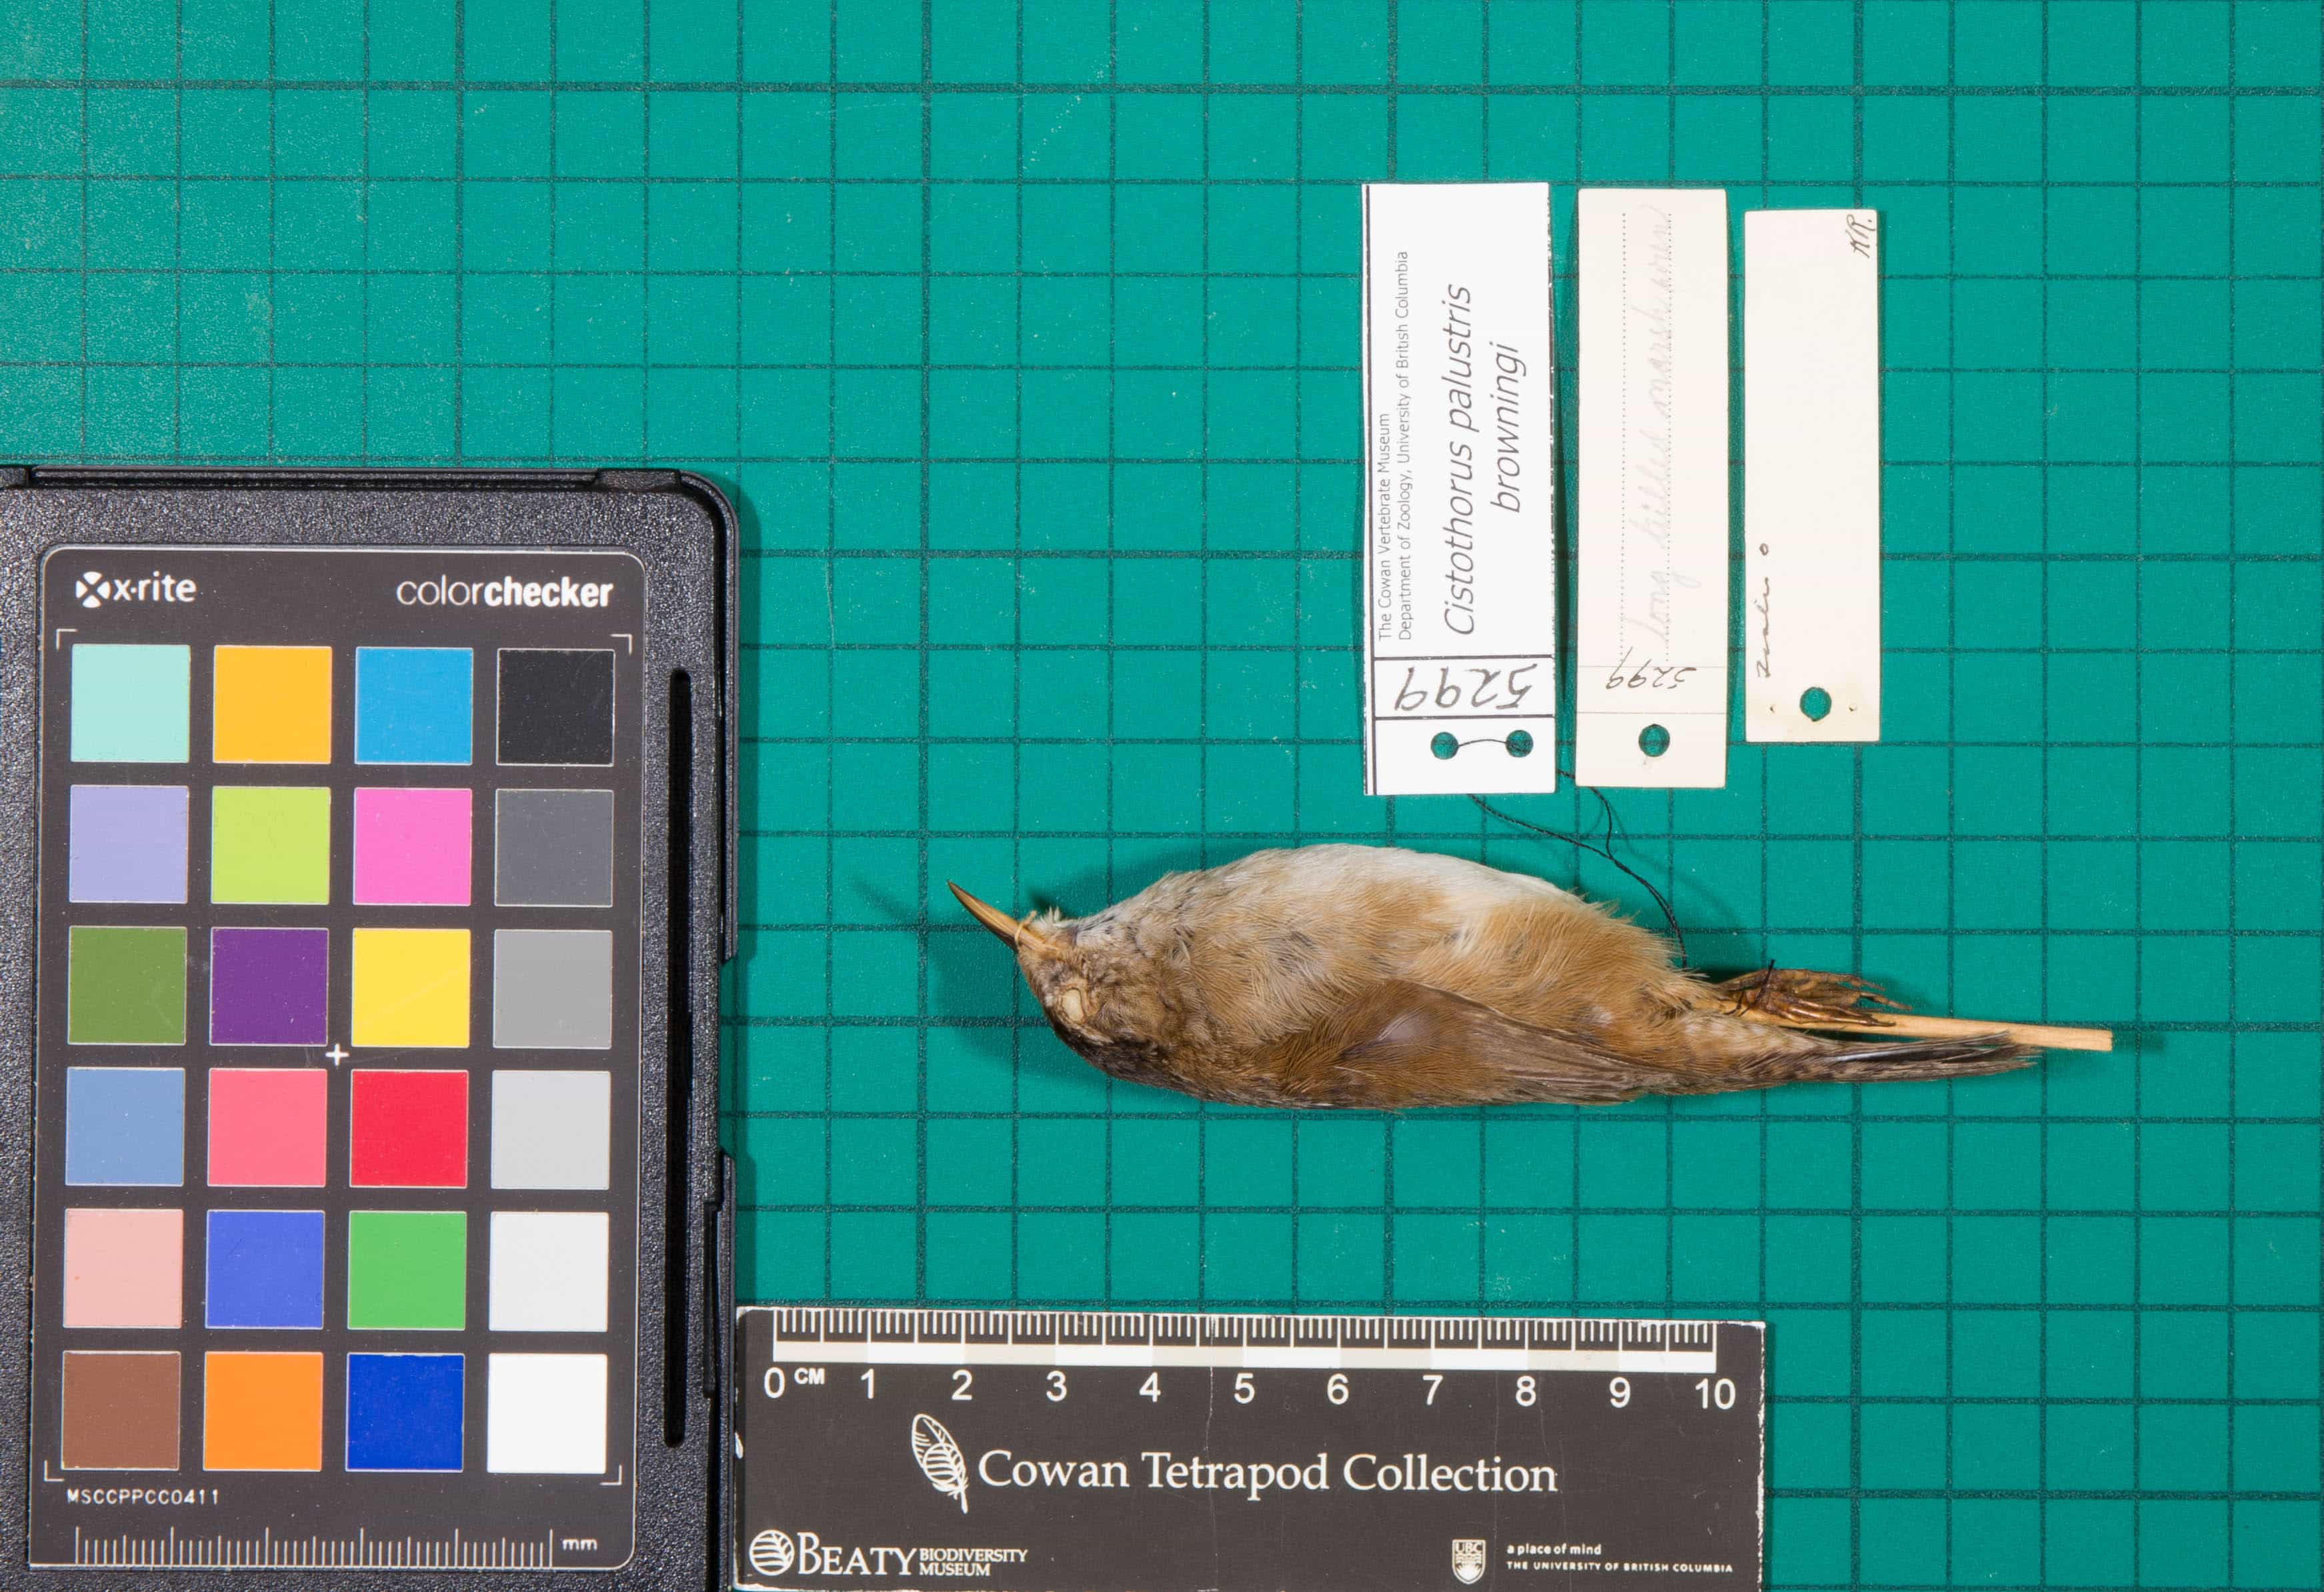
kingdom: Animalia
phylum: Chordata
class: Aves
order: Passeriformes
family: Troglodytidae
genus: Cistothorus
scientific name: Cistothorus palustris
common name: Marsh Wren
